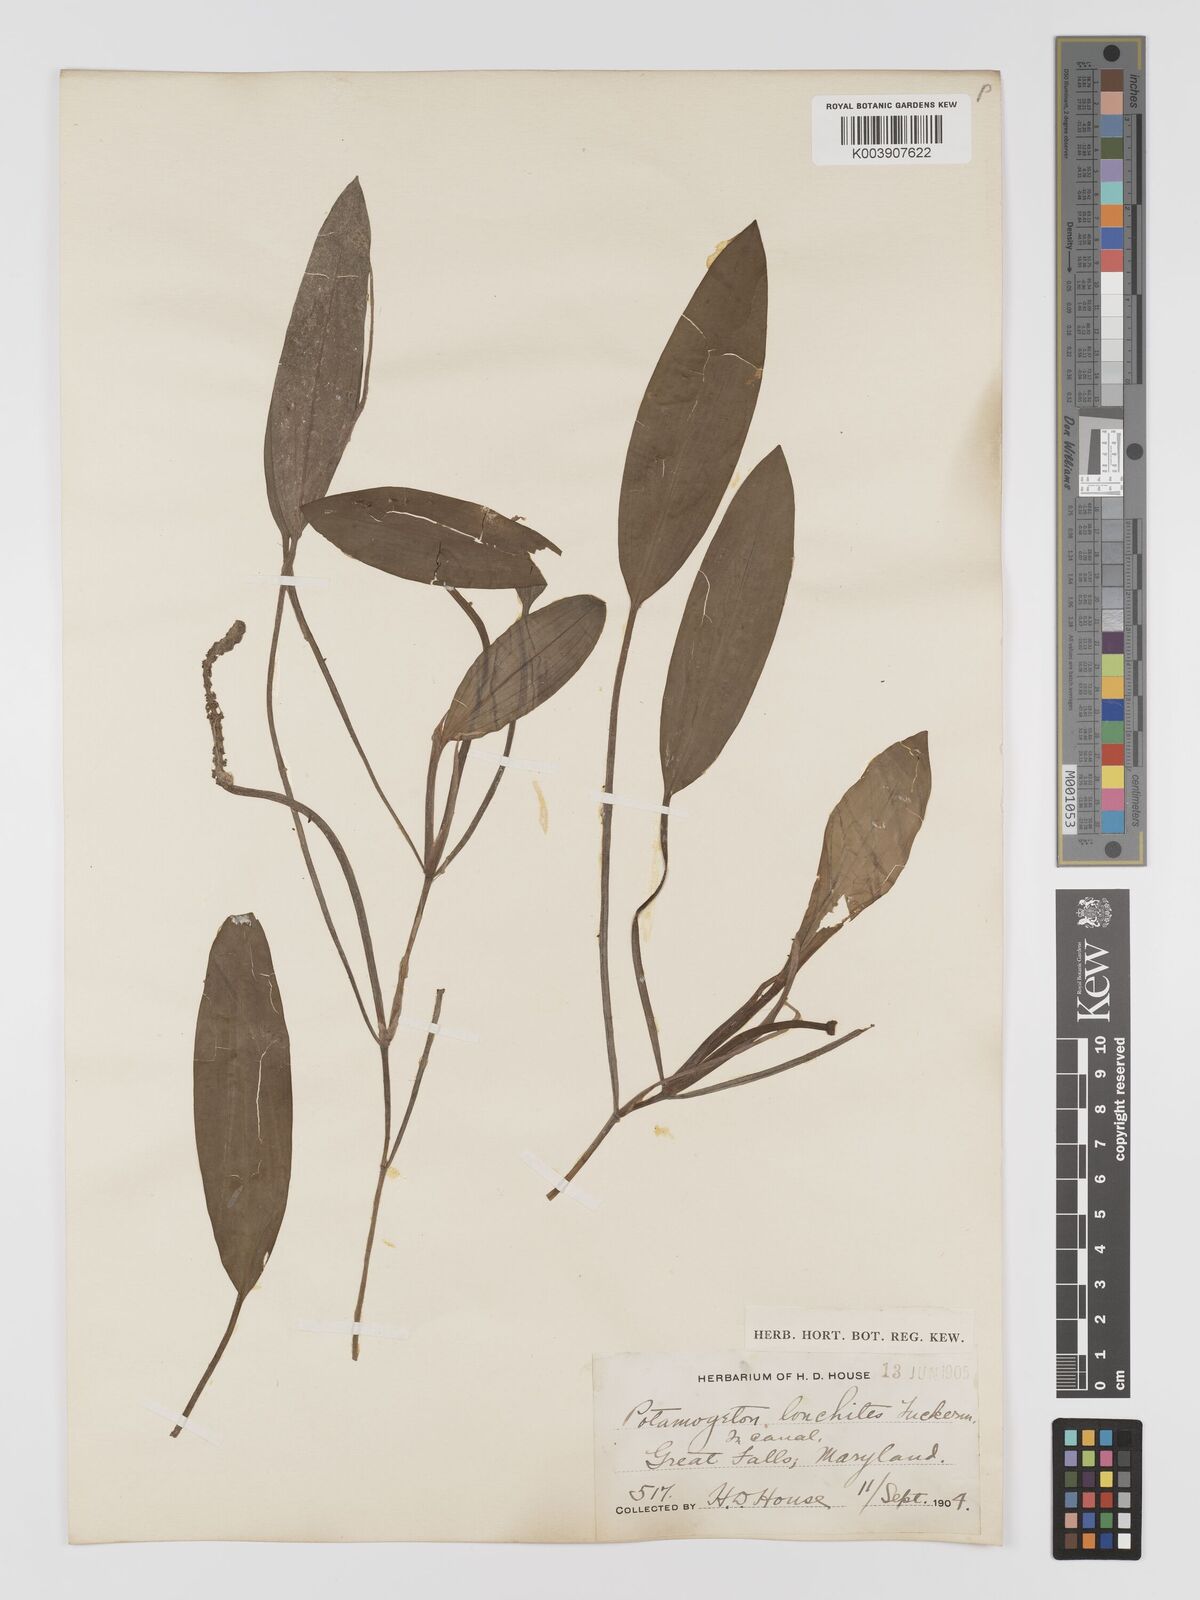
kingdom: Plantae
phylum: Tracheophyta
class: Liliopsida
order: Alismatales
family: Potamogetonaceae
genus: Potamogeton
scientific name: Potamogeton nodosus
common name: Loddon pondweed
